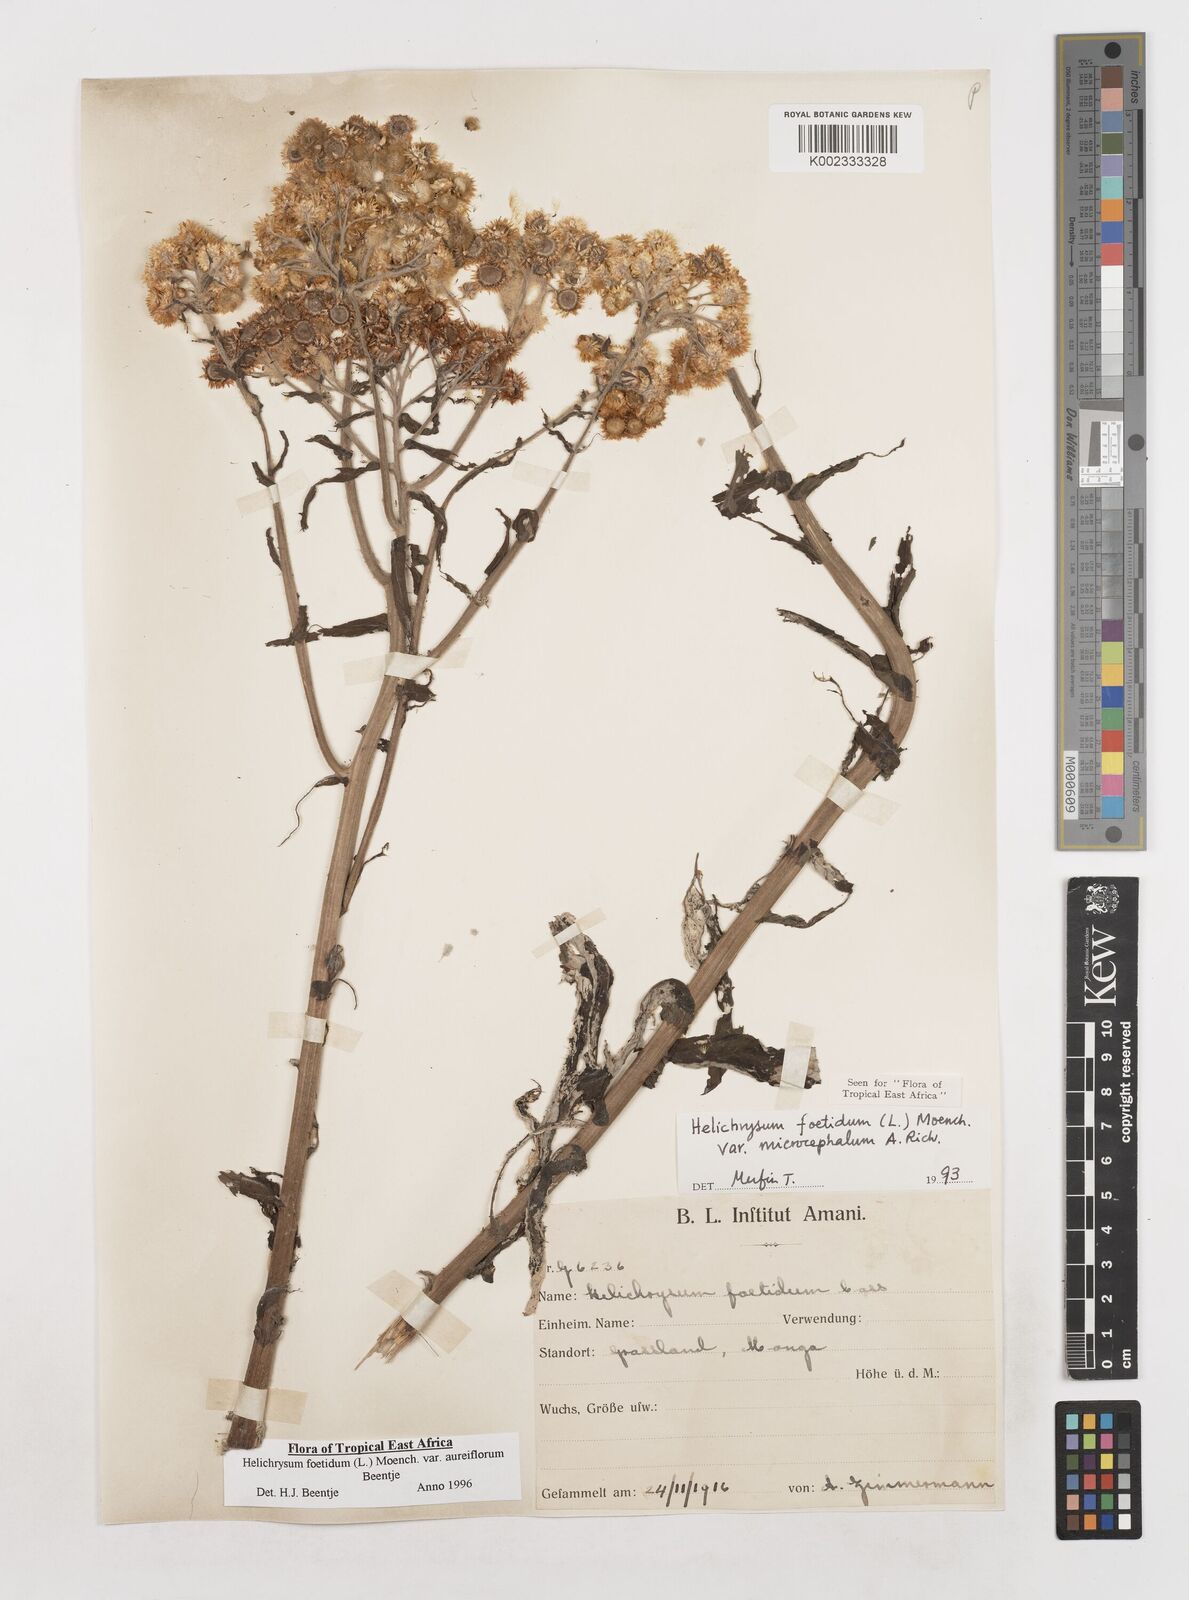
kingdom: Plantae
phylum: Tracheophyta
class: Magnoliopsida
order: Asterales
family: Asteraceae
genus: Helichrysum
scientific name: Helichrysum foetidum
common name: Stinking everlasting
